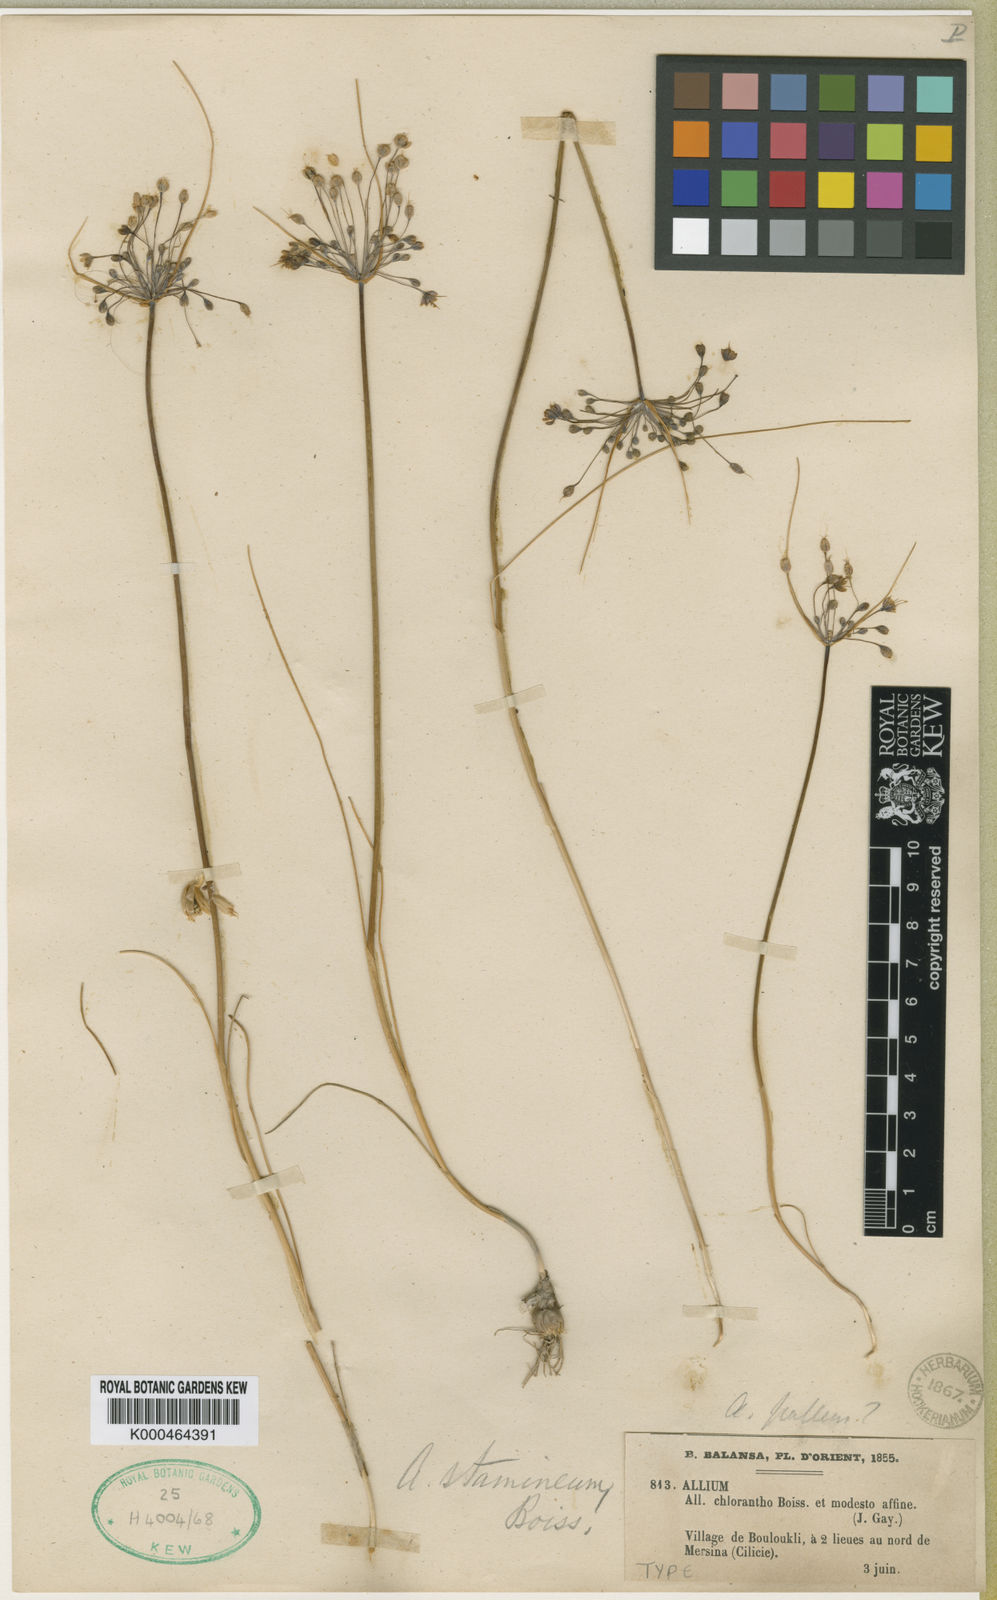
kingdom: Plantae
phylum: Tracheophyta
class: Liliopsida
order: Asparagales
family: Amaryllidaceae
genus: Allium
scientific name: Allium stamineum
